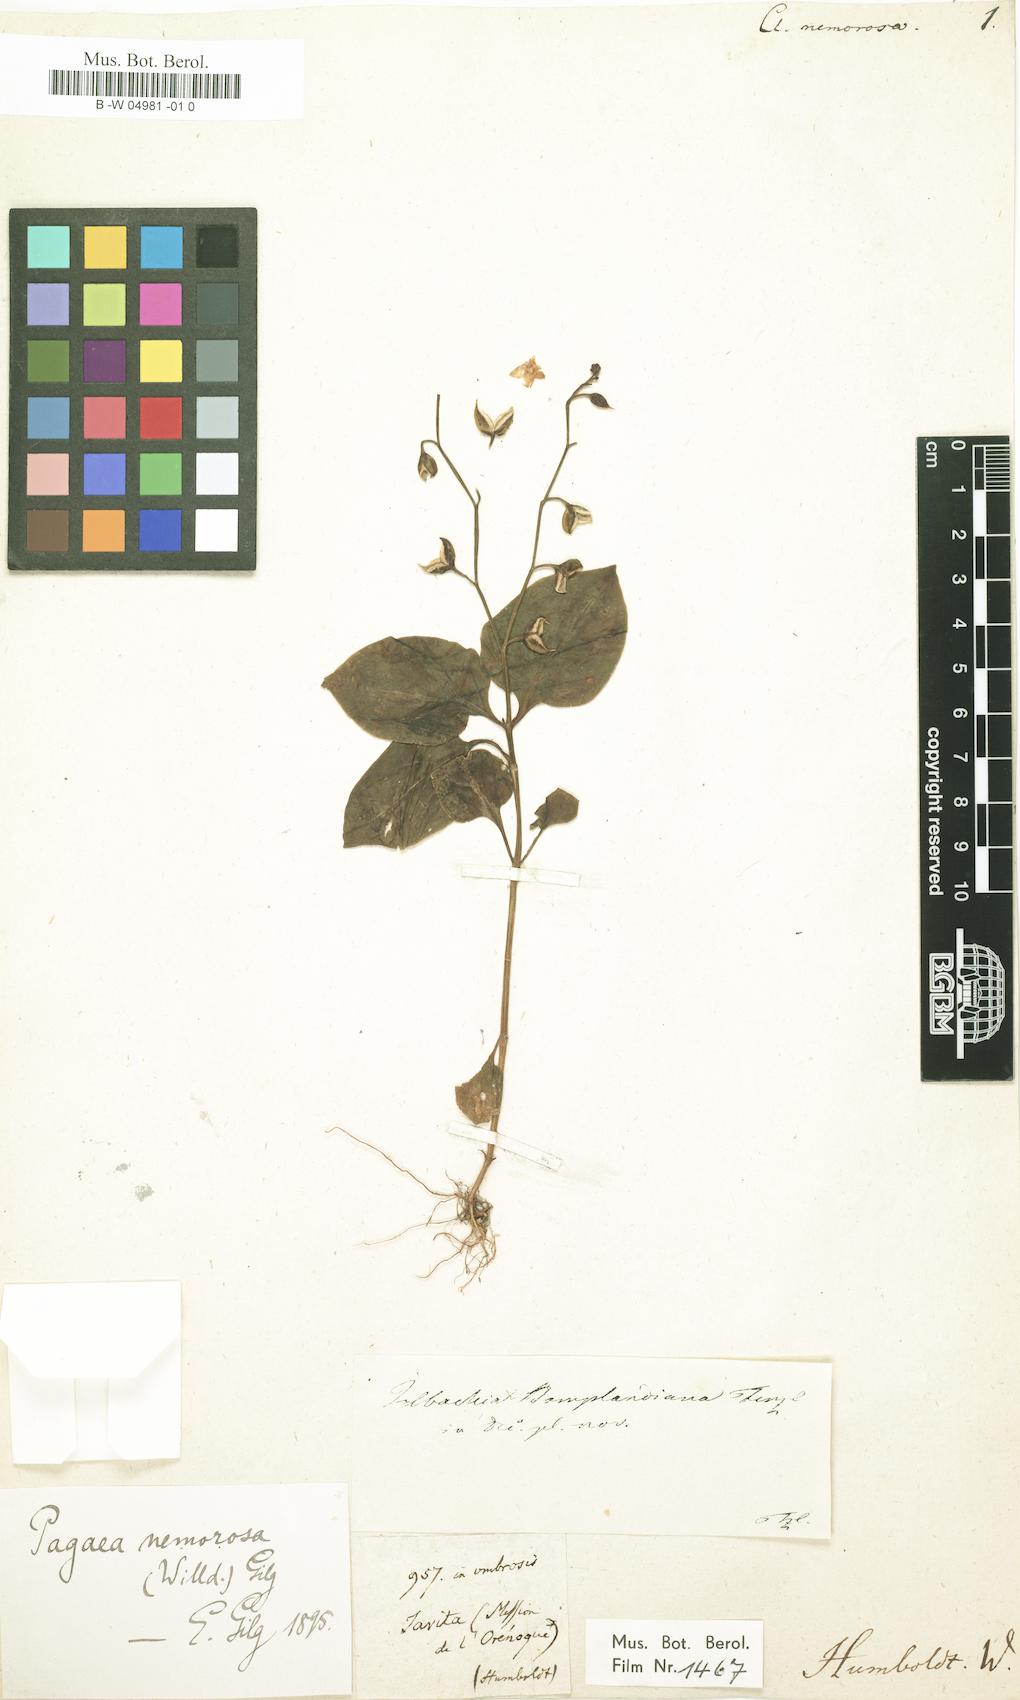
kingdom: Plantae
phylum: Tracheophyta
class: Magnoliopsida
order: Gentianales
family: Gentianaceae
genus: Irlbachia
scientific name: Irlbachia nemorosa
